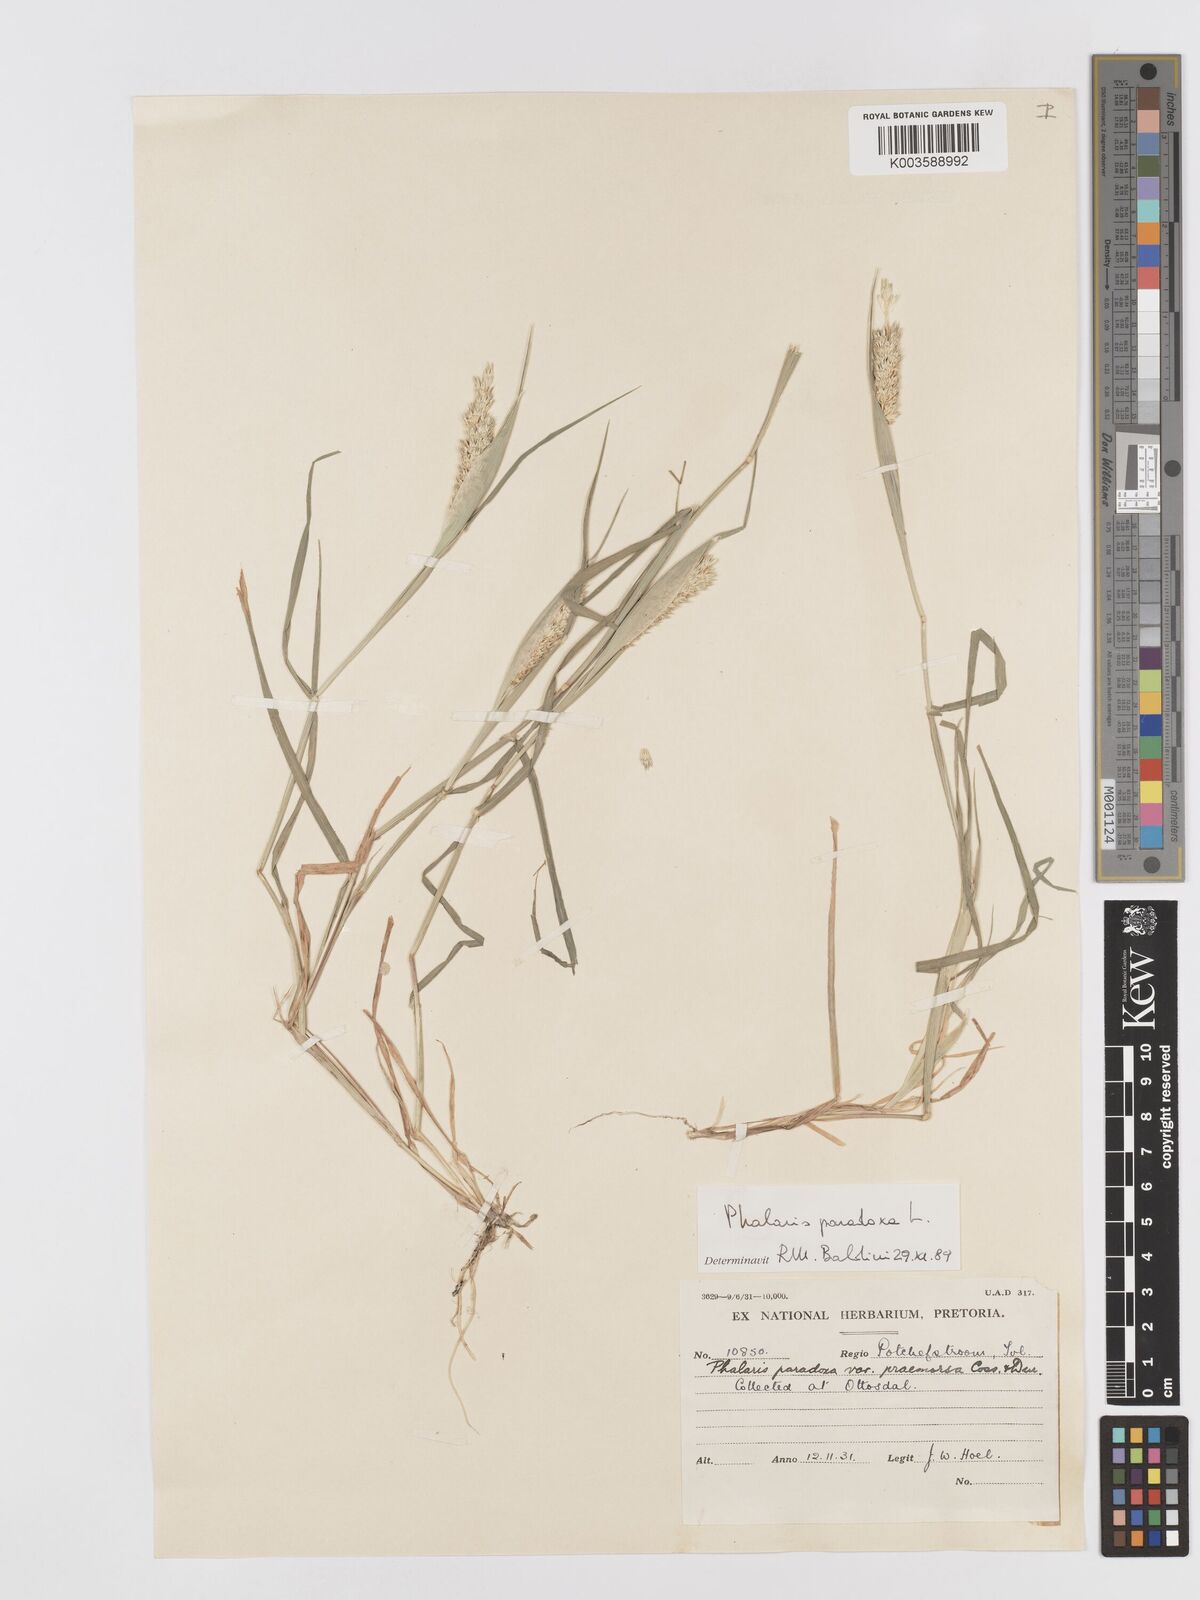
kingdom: Plantae
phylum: Tracheophyta
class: Liliopsida
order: Poales
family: Poaceae
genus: Phalaris
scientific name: Phalaris paradoxa
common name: Awned canary-grass
